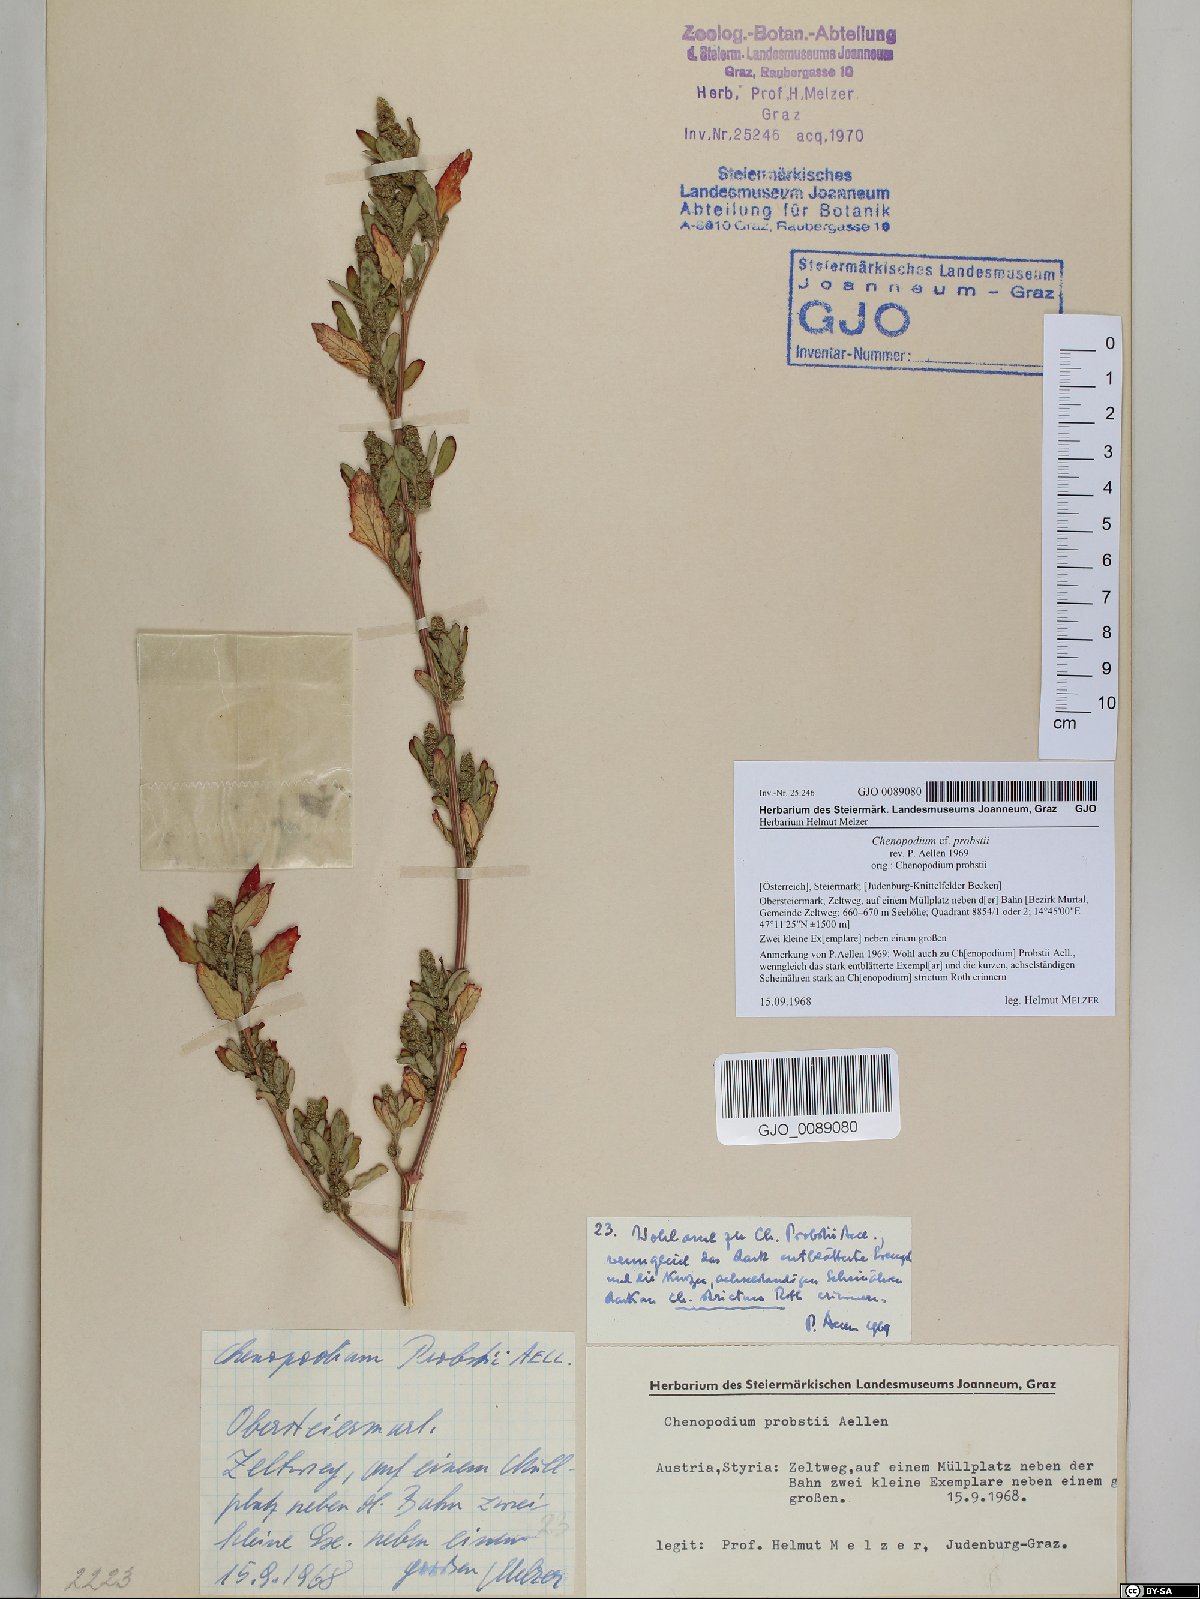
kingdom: Plantae
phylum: Tracheophyta
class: Magnoliopsida
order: Caryophyllales
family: Amaranthaceae
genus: Chenopodium
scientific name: Chenopodium probstii
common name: Probst's goosefoot
